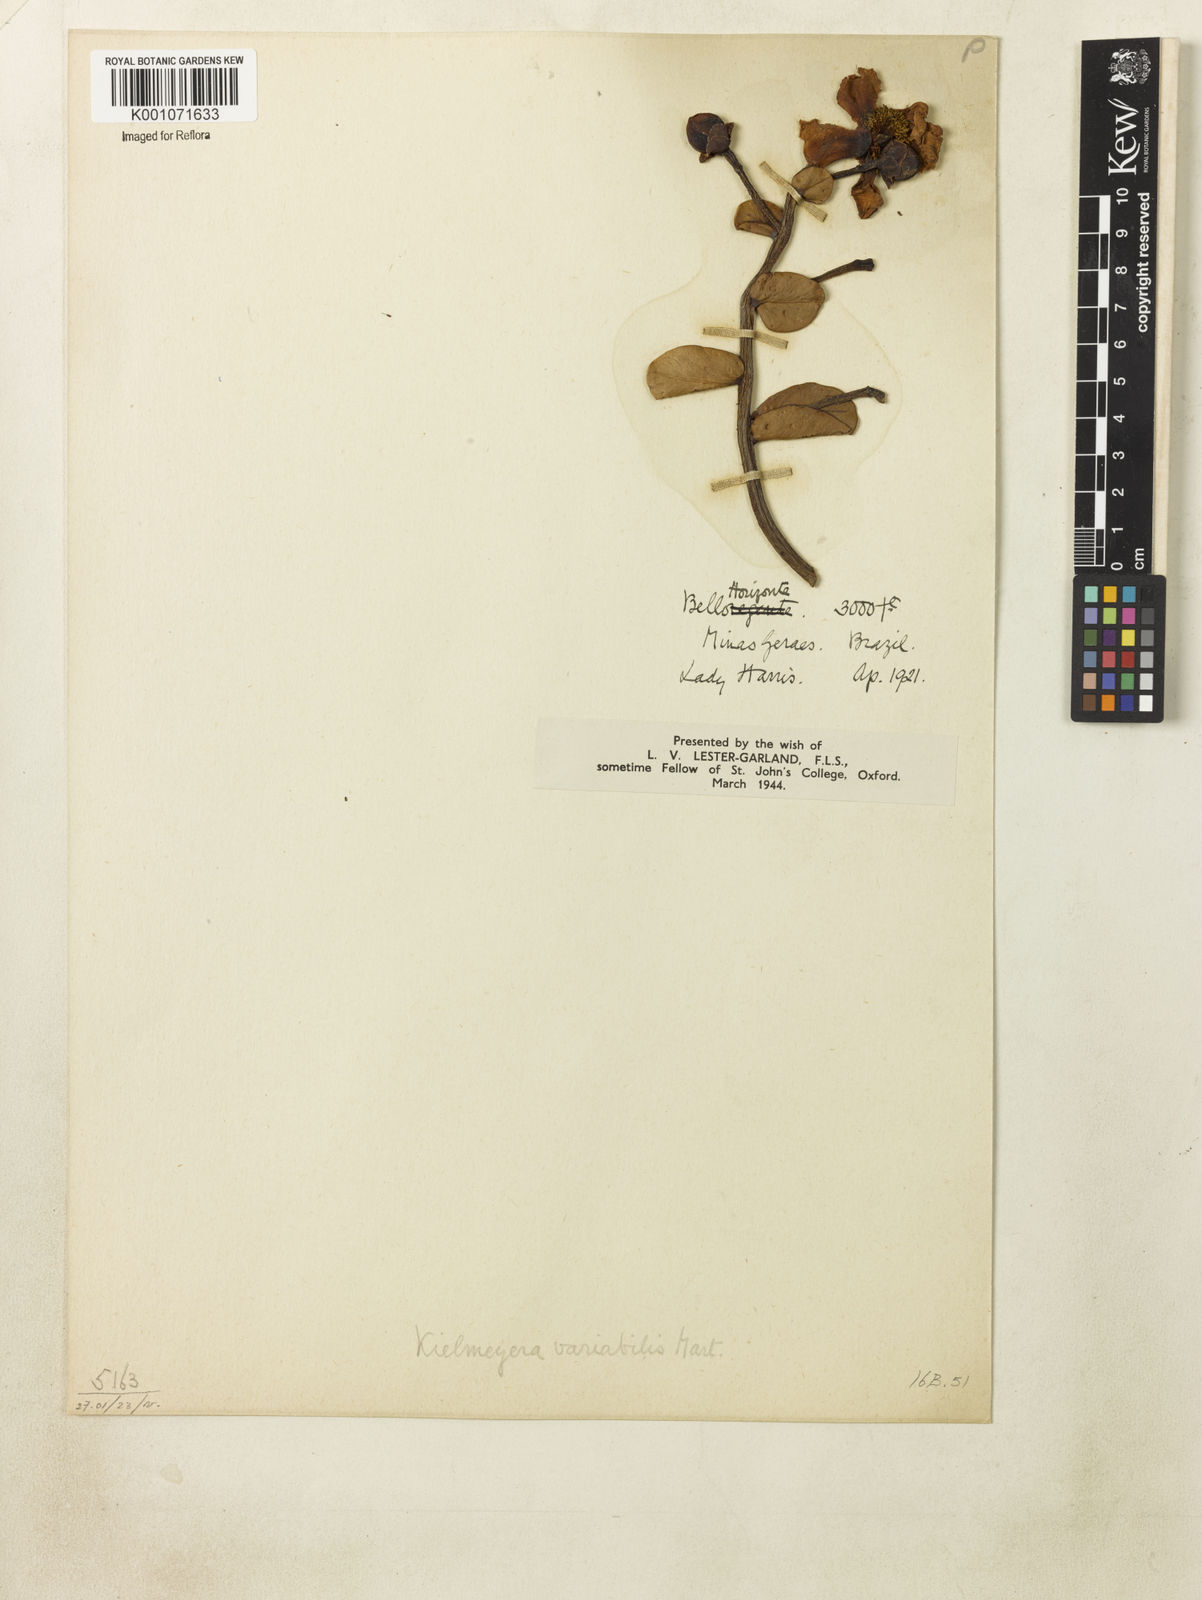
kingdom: Plantae
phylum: Tracheophyta
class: Magnoliopsida
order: Malpighiales
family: Calophyllaceae
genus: Kielmeyera
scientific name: Kielmeyera variabilis
